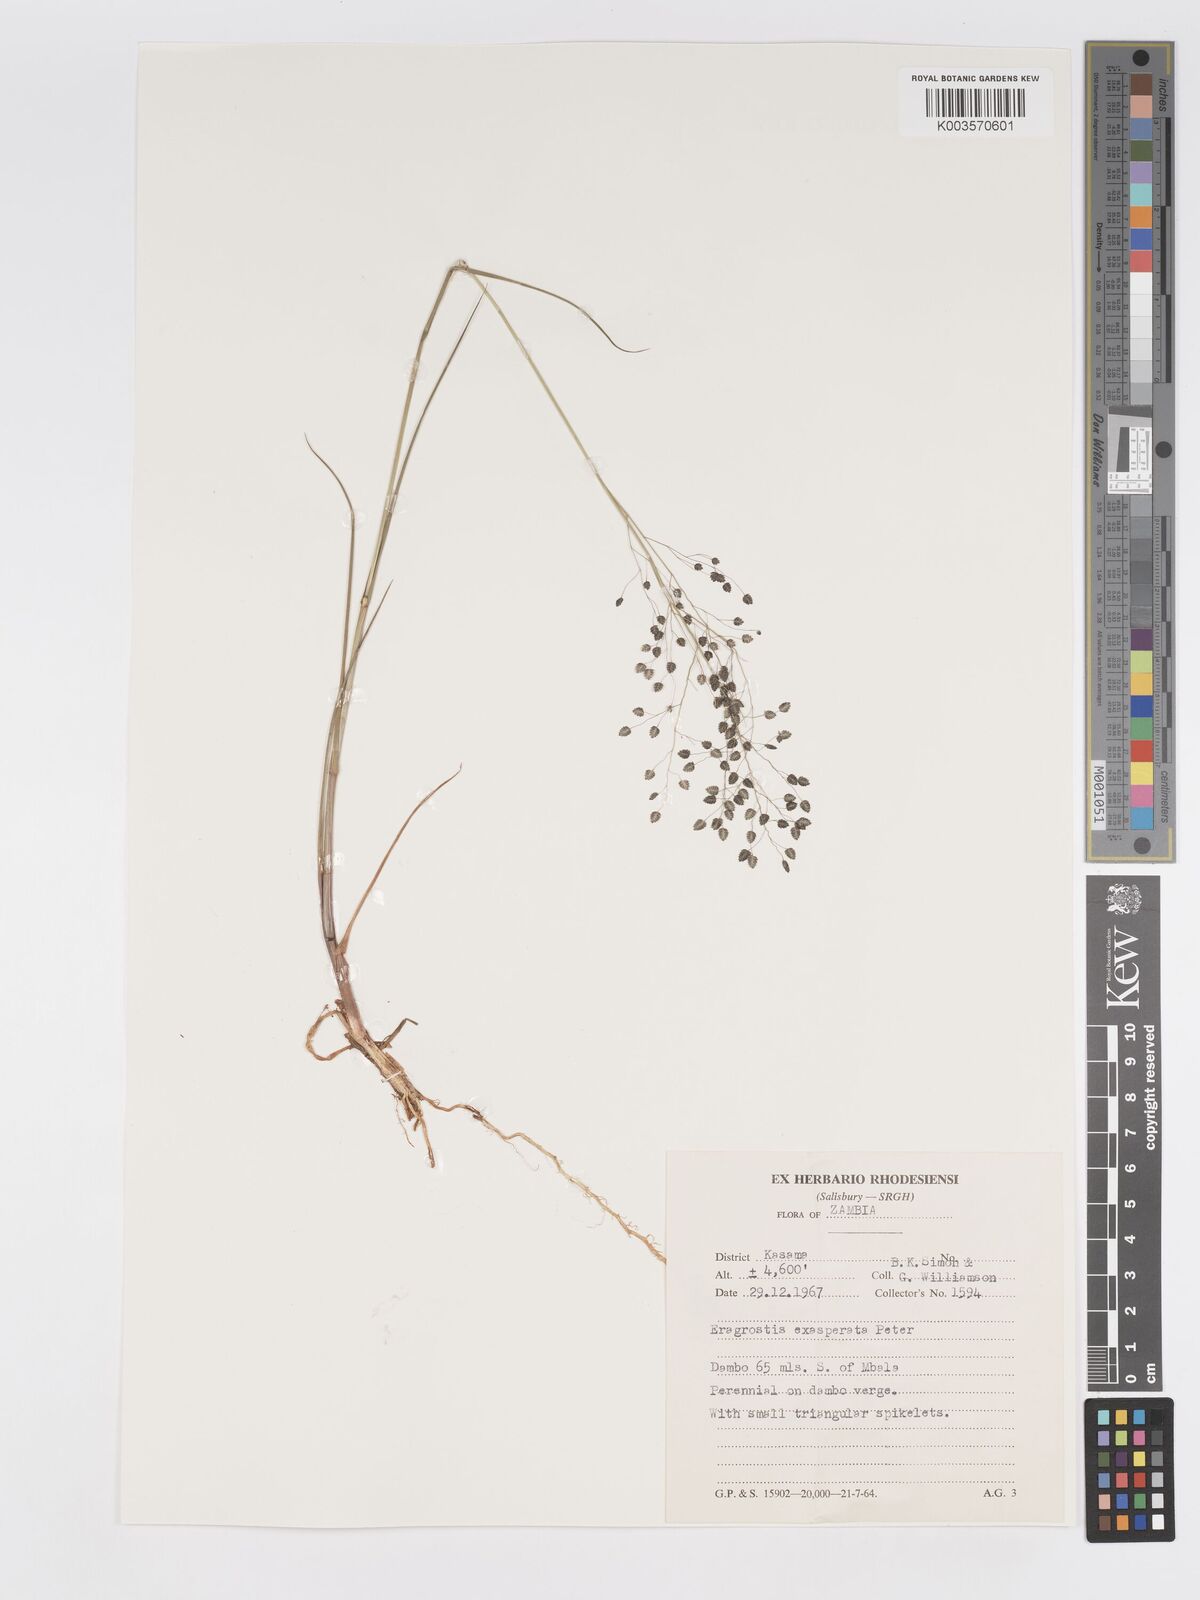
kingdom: Plantae
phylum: Tracheophyta
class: Liliopsida
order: Poales
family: Poaceae
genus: Eragrostis
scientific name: Eragrostis exasperata
